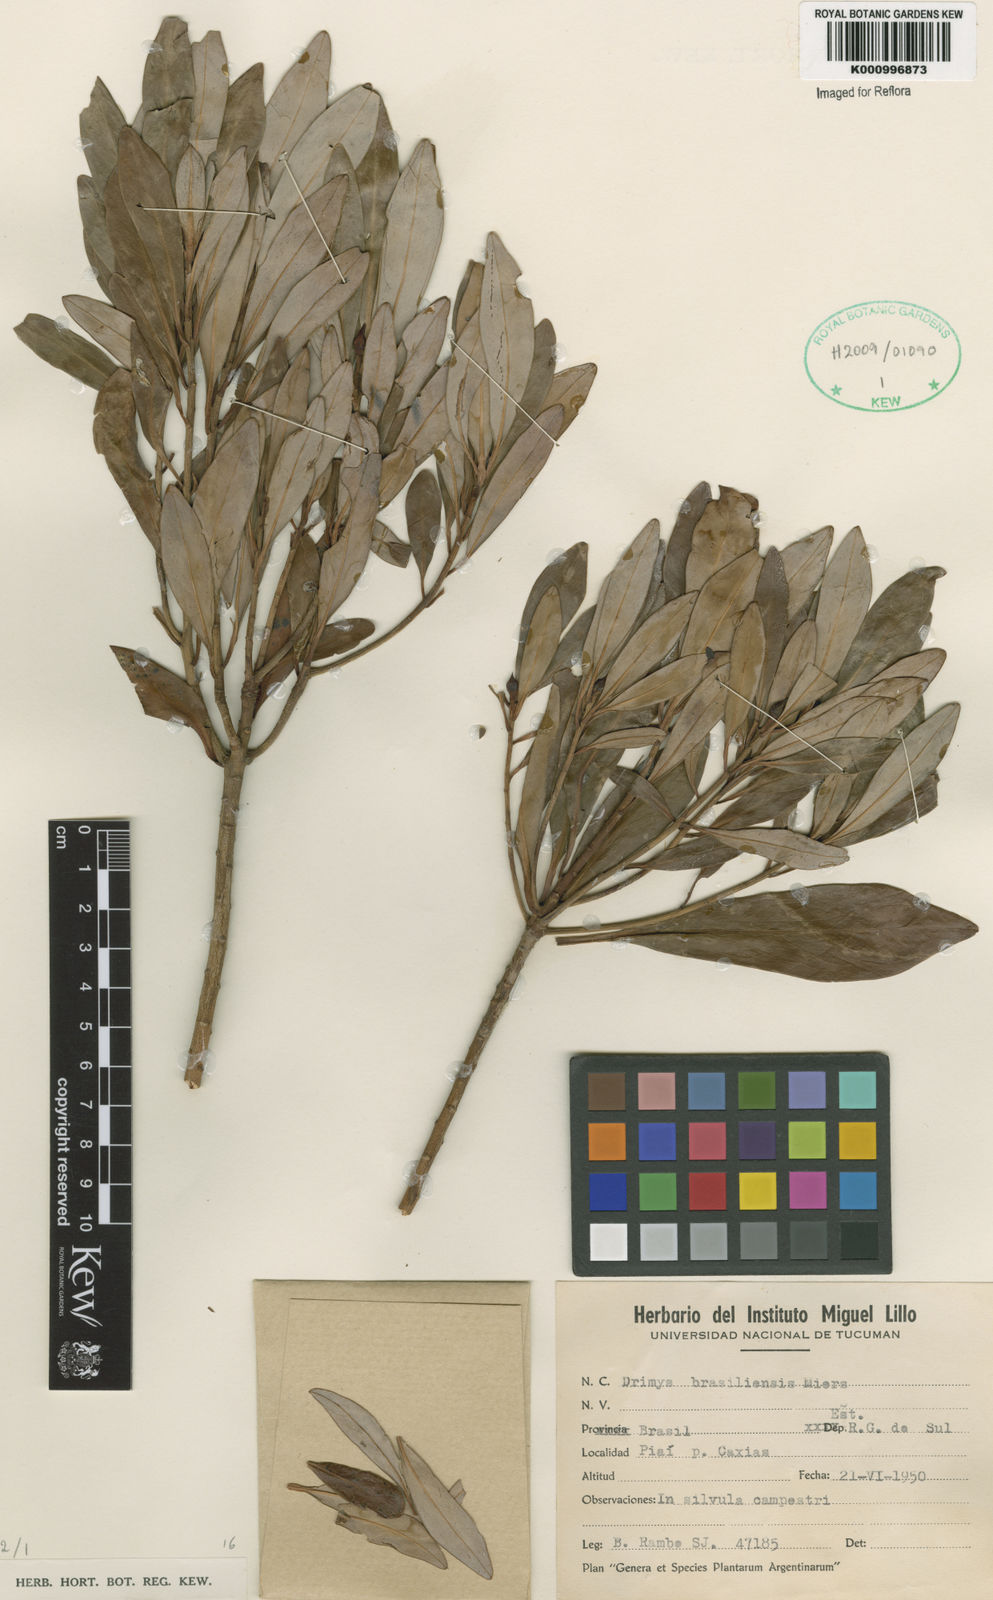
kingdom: Plantae
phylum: Tracheophyta
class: Magnoliopsida
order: Canellales
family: Winteraceae
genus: Drimys
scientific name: Drimys brasiliensis
